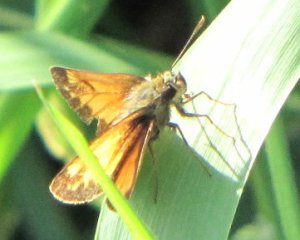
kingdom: Animalia
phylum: Arthropoda
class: Insecta
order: Lepidoptera
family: Hesperiidae
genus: Lon
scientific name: Lon hobomok
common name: Hobomok Skipper
